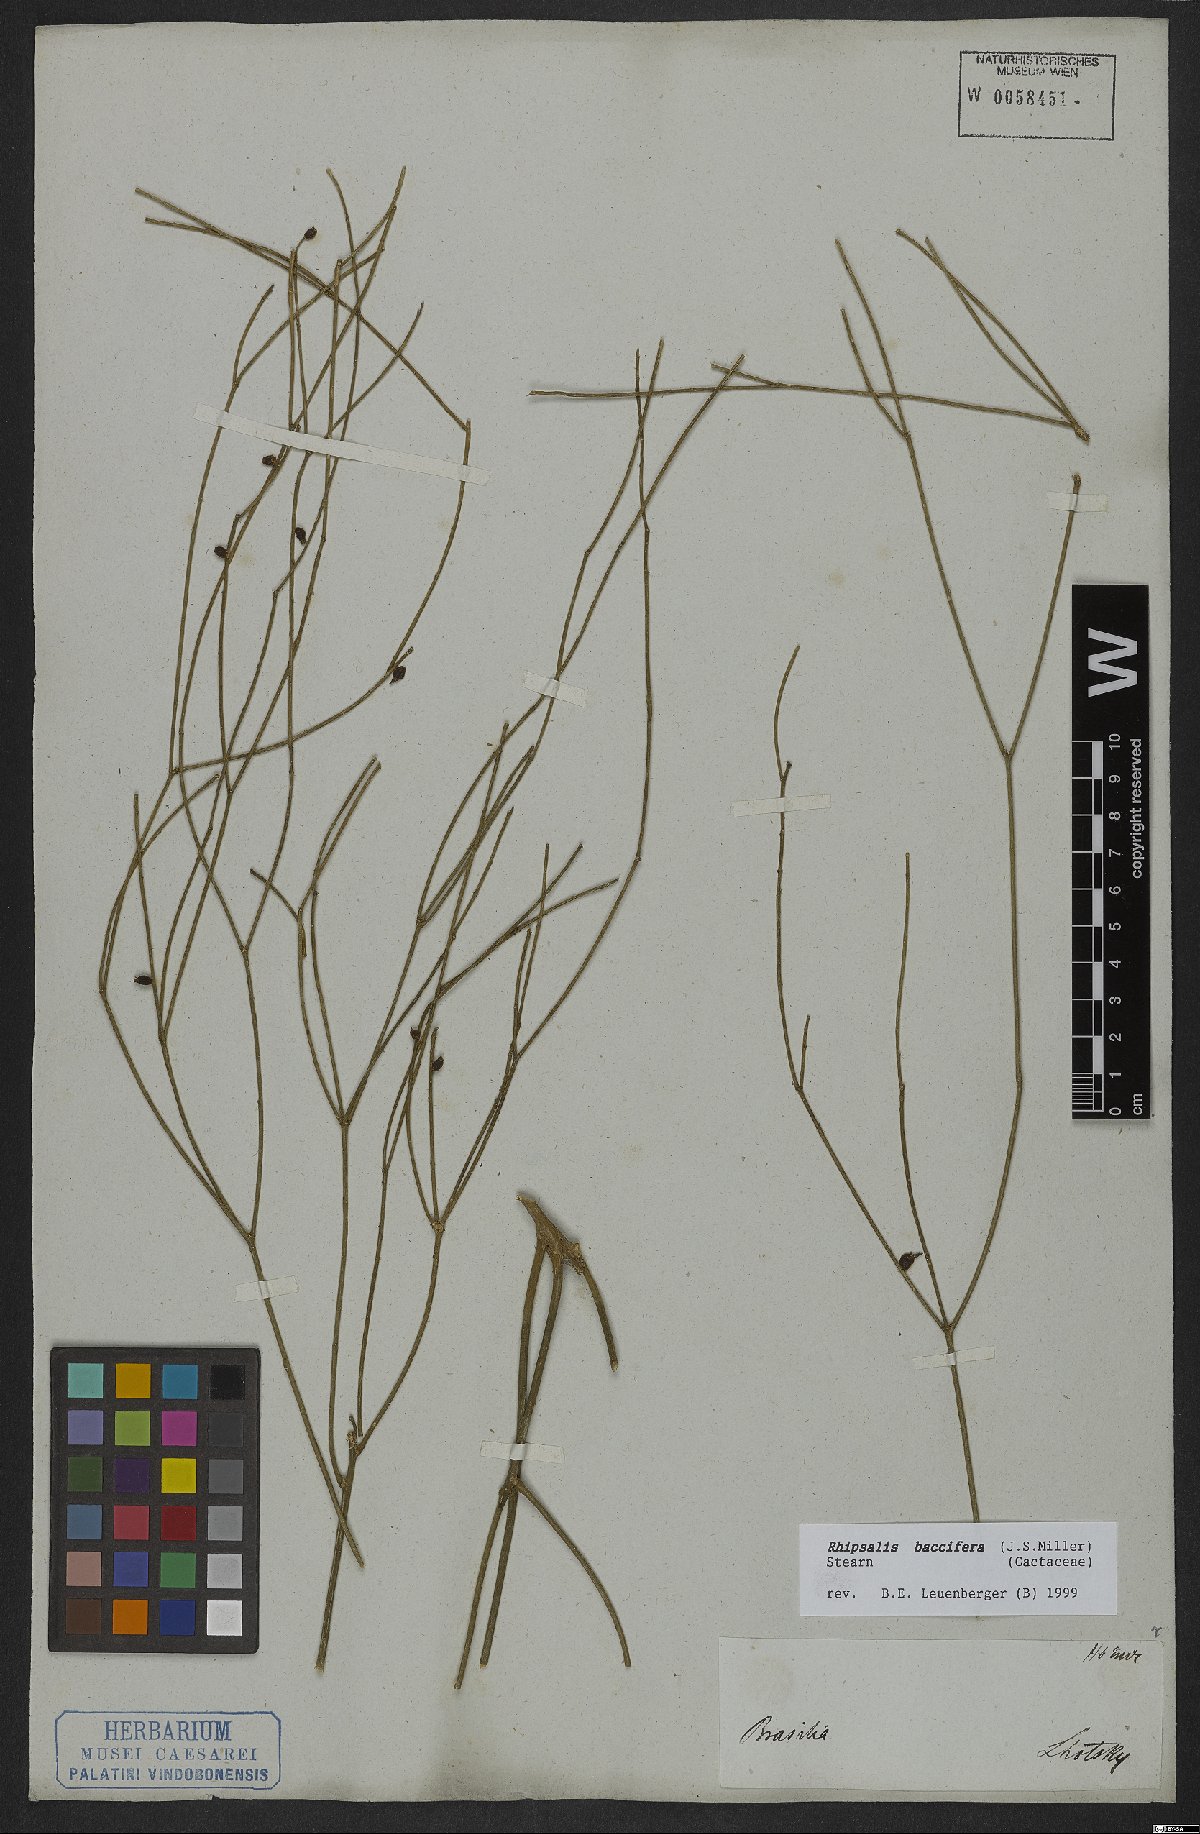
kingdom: Plantae
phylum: Tracheophyta
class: Magnoliopsida
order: Caryophyllales
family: Cactaceae
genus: Rhipsalis
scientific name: Rhipsalis baccifera
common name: Mistletoe cactus
